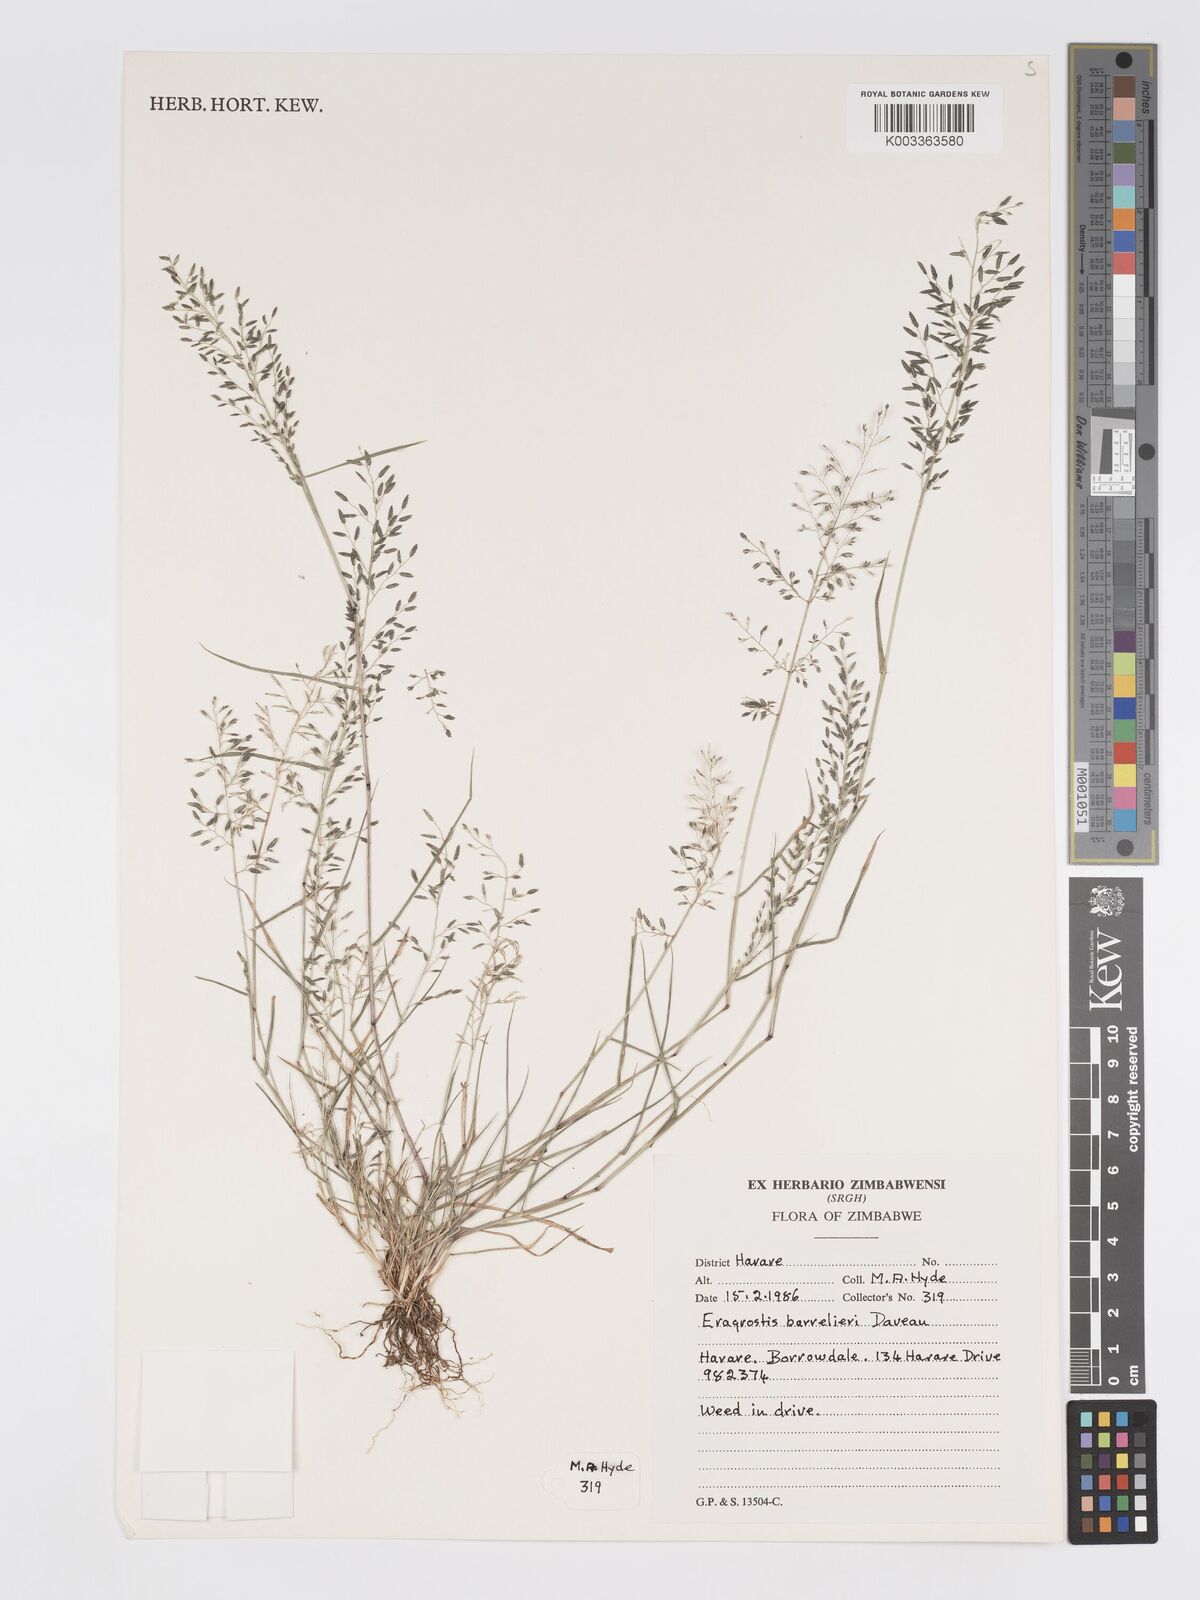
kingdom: Plantae
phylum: Tracheophyta
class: Liliopsida
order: Poales
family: Poaceae
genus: Eragrostis
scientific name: Eragrostis barrelieri
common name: Mediterranean lovegrass
